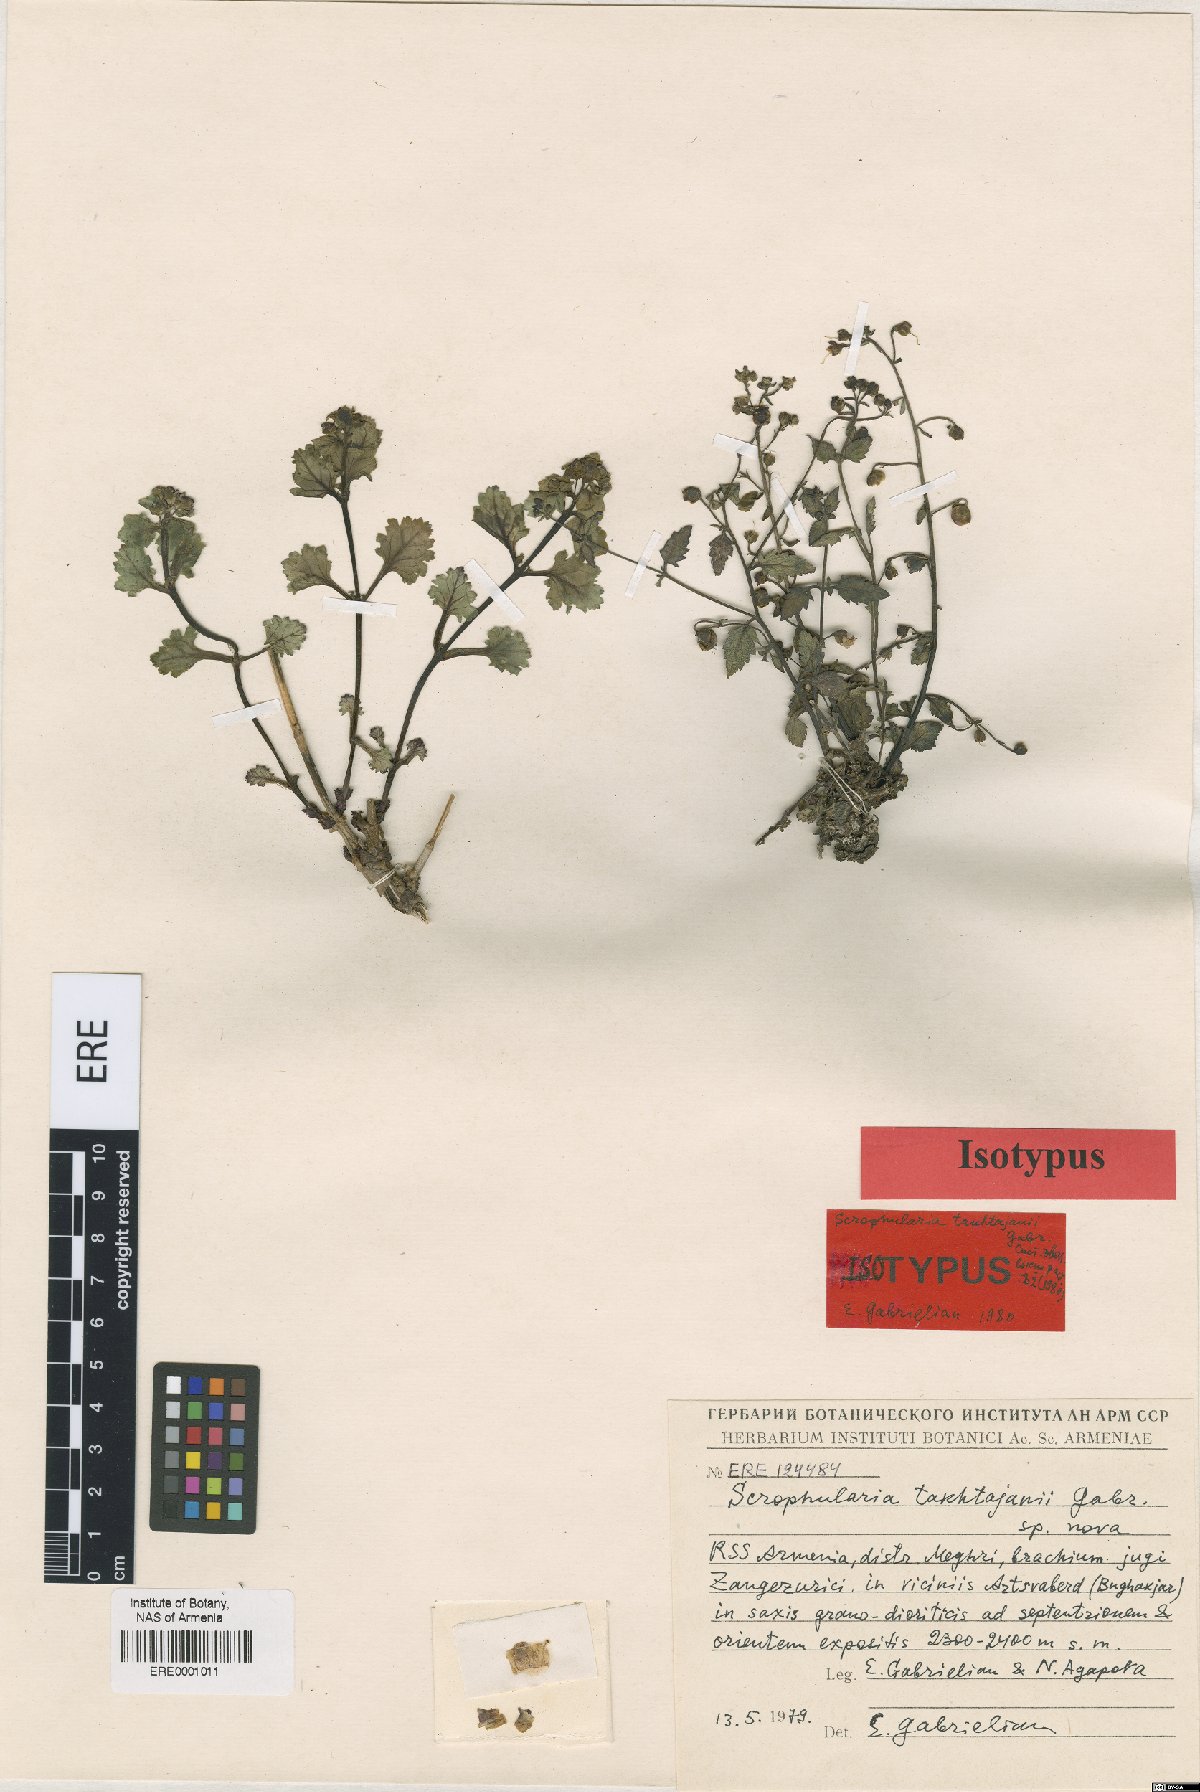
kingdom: Plantae
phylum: Tracheophyta
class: Magnoliopsida
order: Lamiales
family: Scrophulariaceae
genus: Scrophularia
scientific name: Scrophularia takhtajanii
